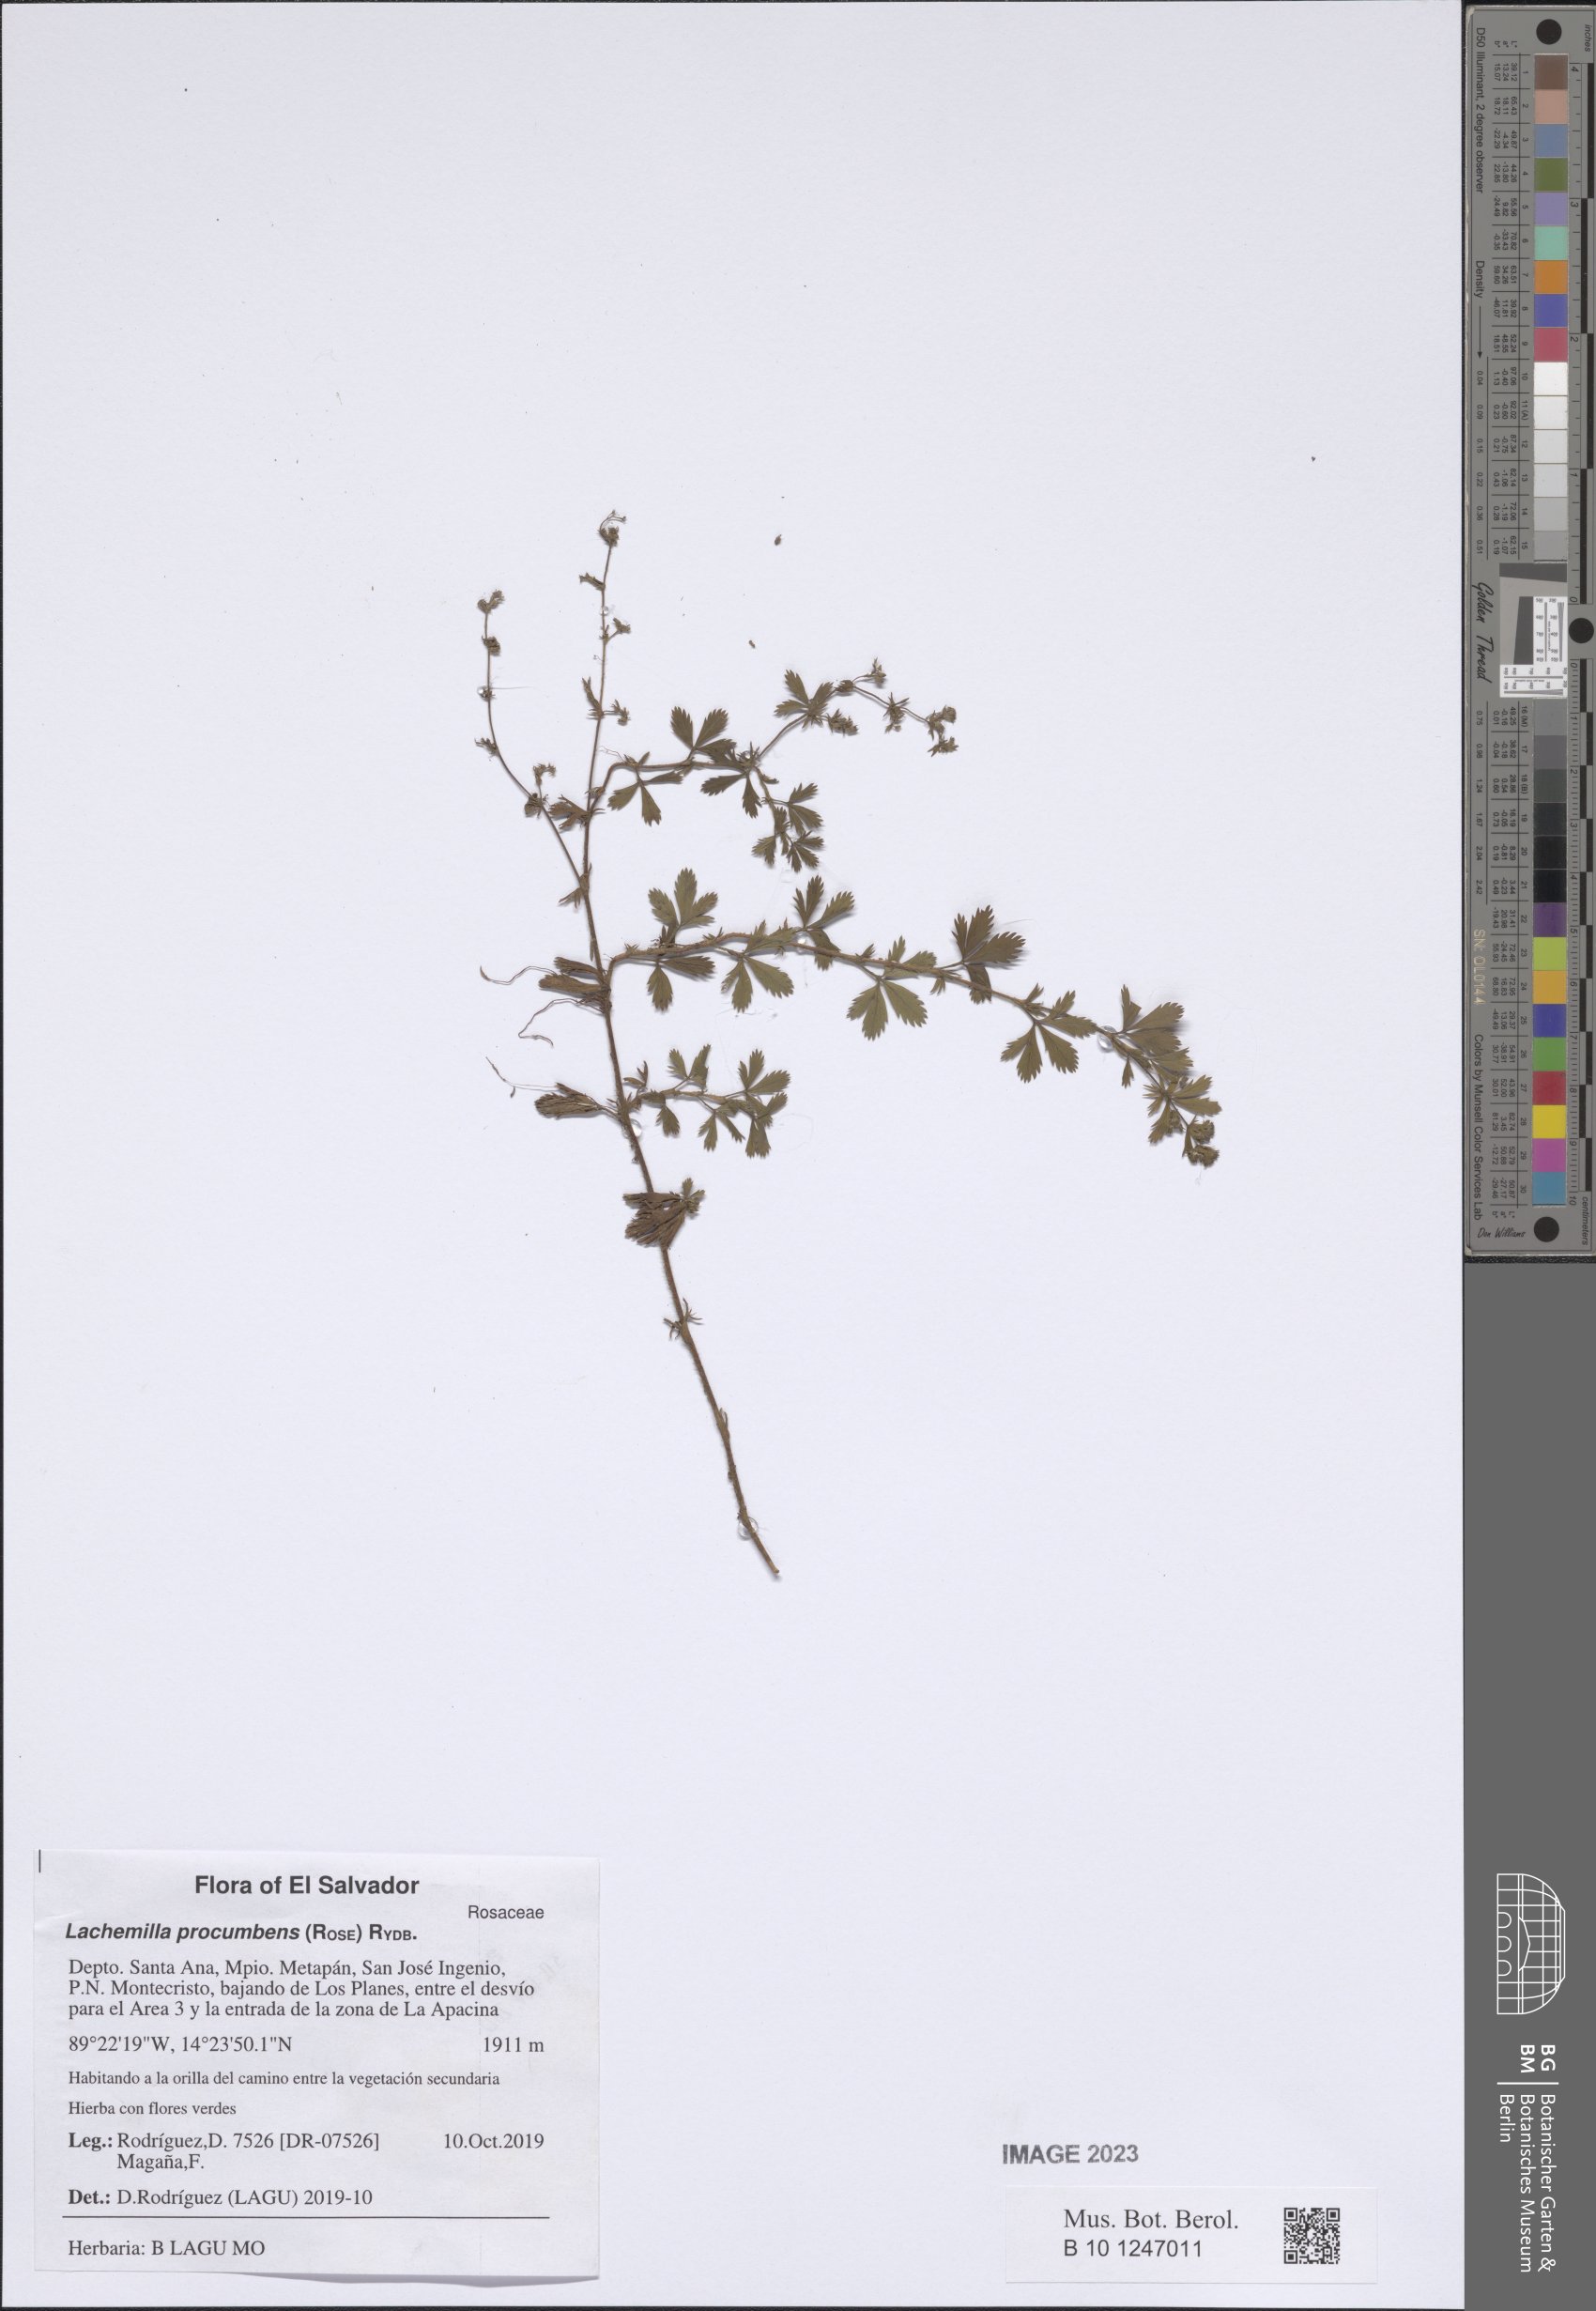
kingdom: Plantae
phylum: Tracheophyta
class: Magnoliopsida
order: Rosales
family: Rosaceae
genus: Lachemilla
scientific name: Lachemilla procumbens
